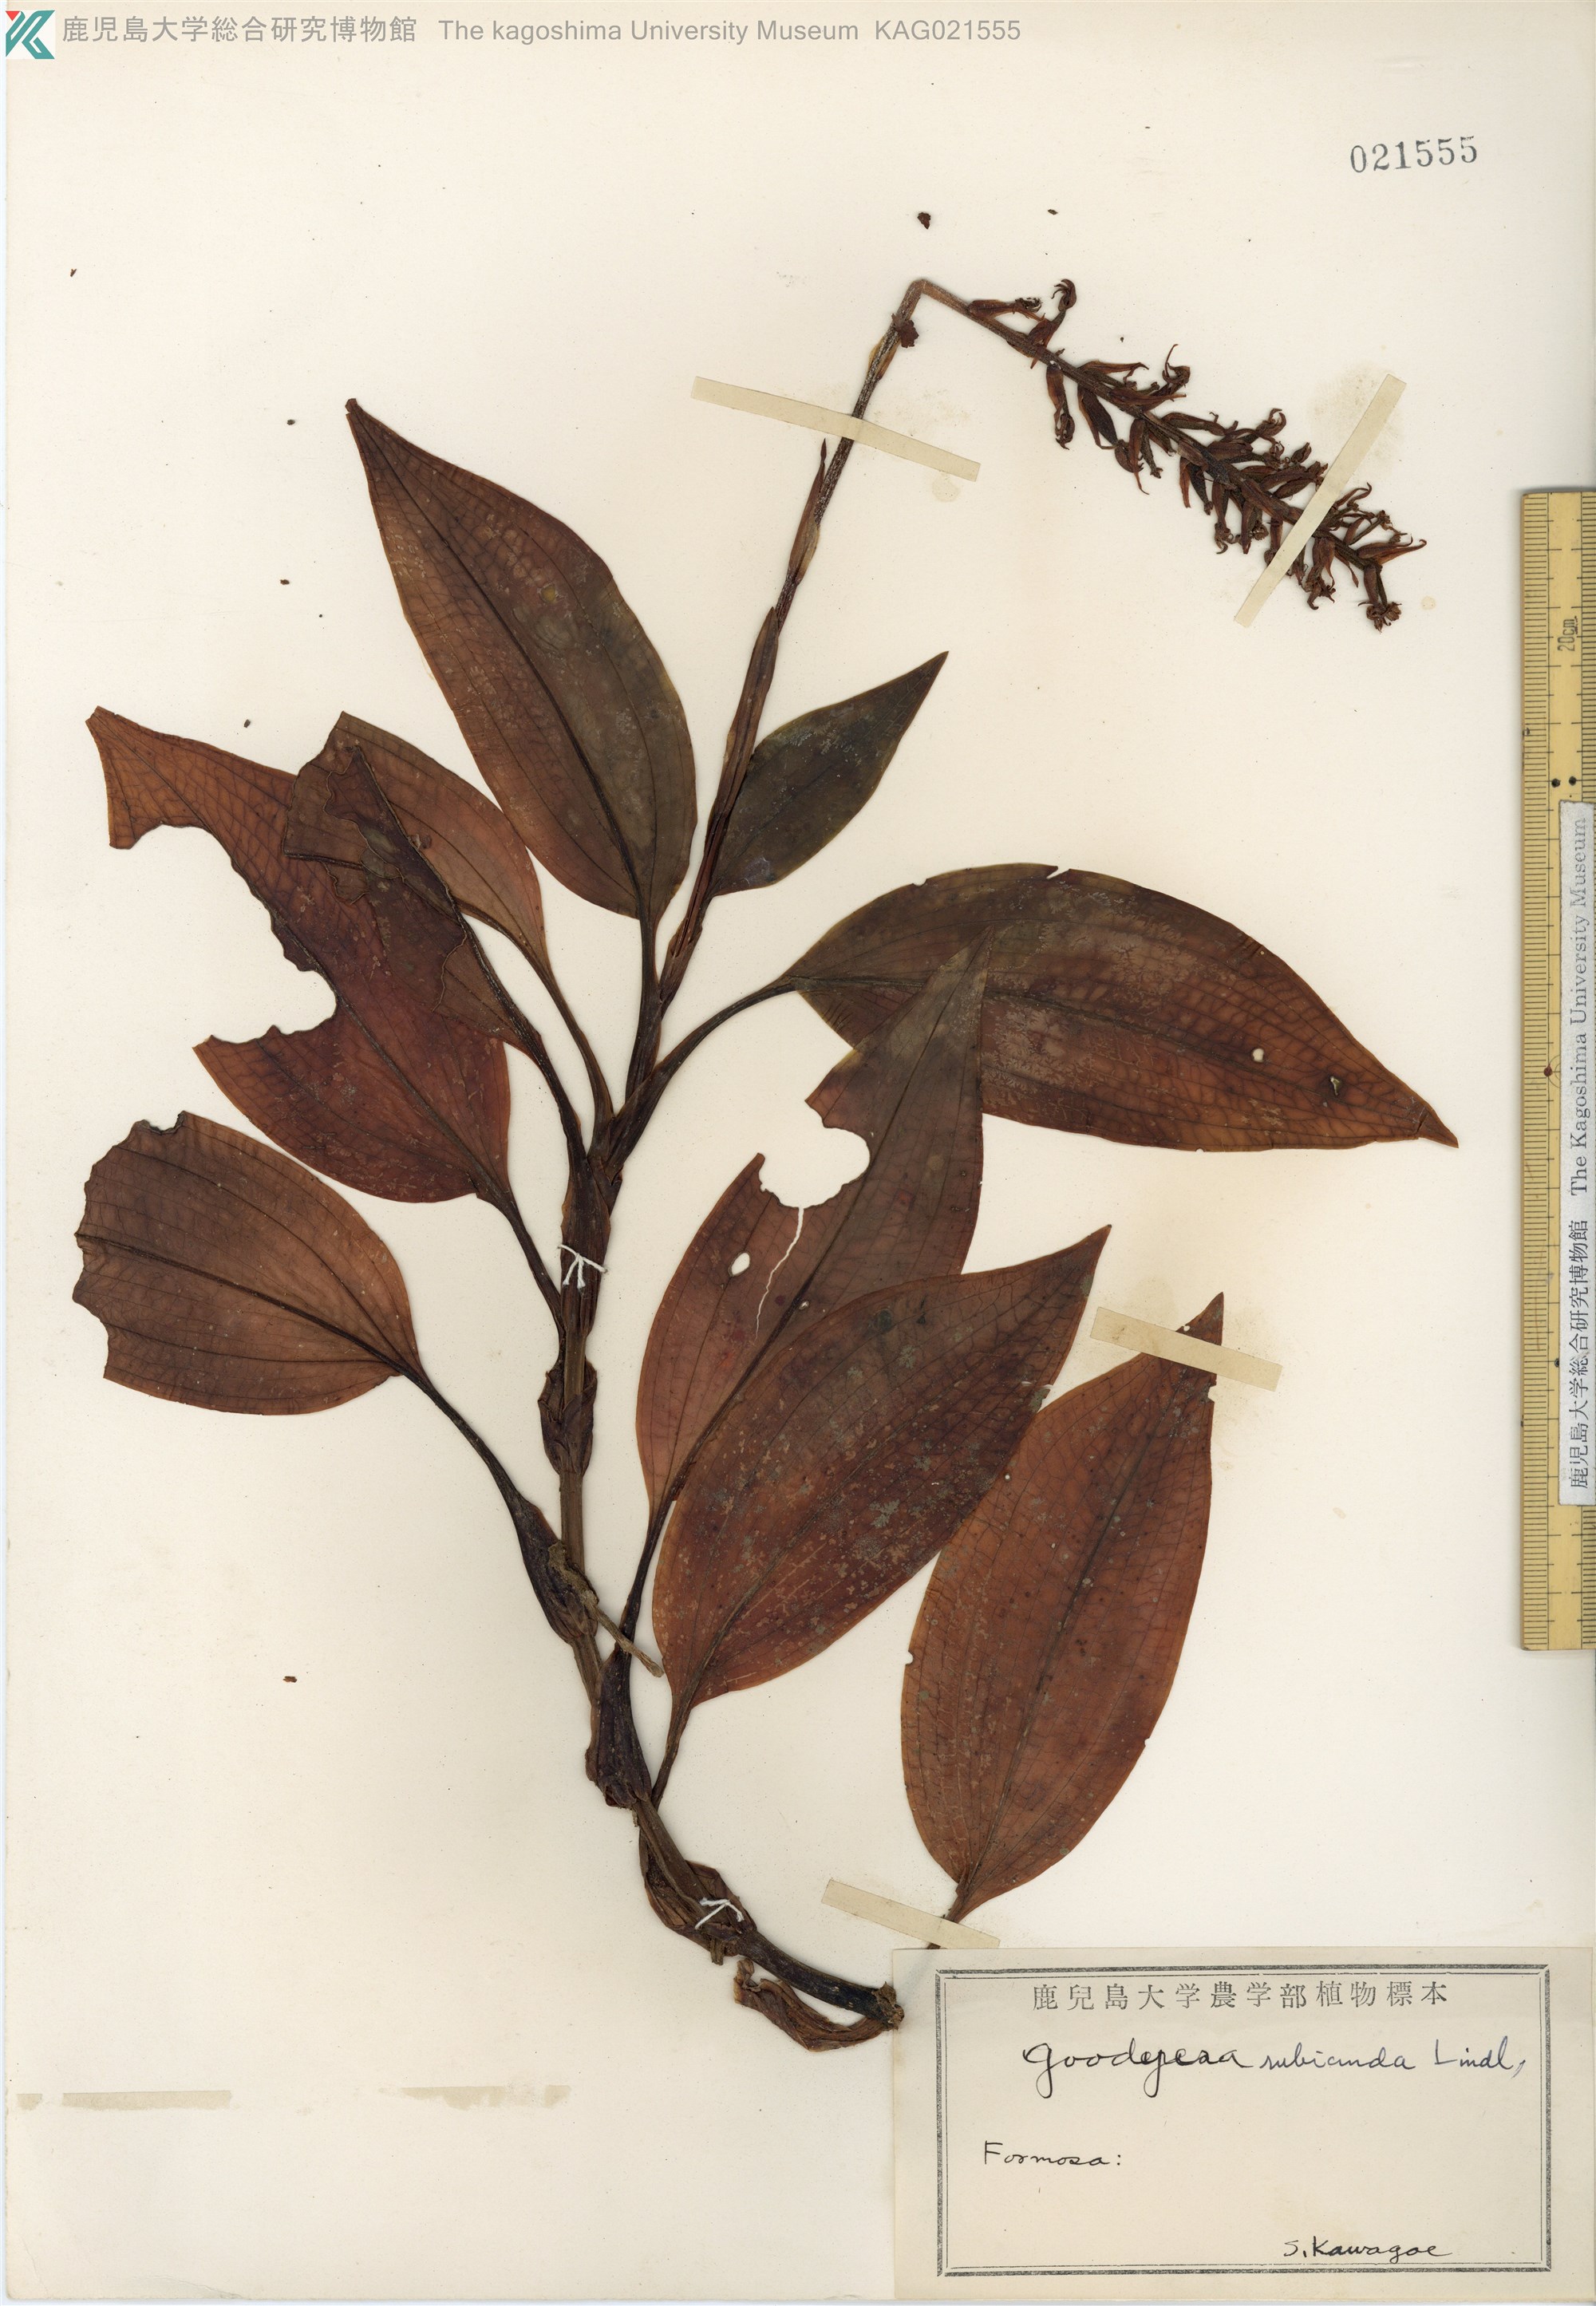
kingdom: Plantae
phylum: Tracheophyta
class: Liliopsida
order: Asparagales
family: Orchidaceae
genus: Goodyera
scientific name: Goodyera rubicunda
